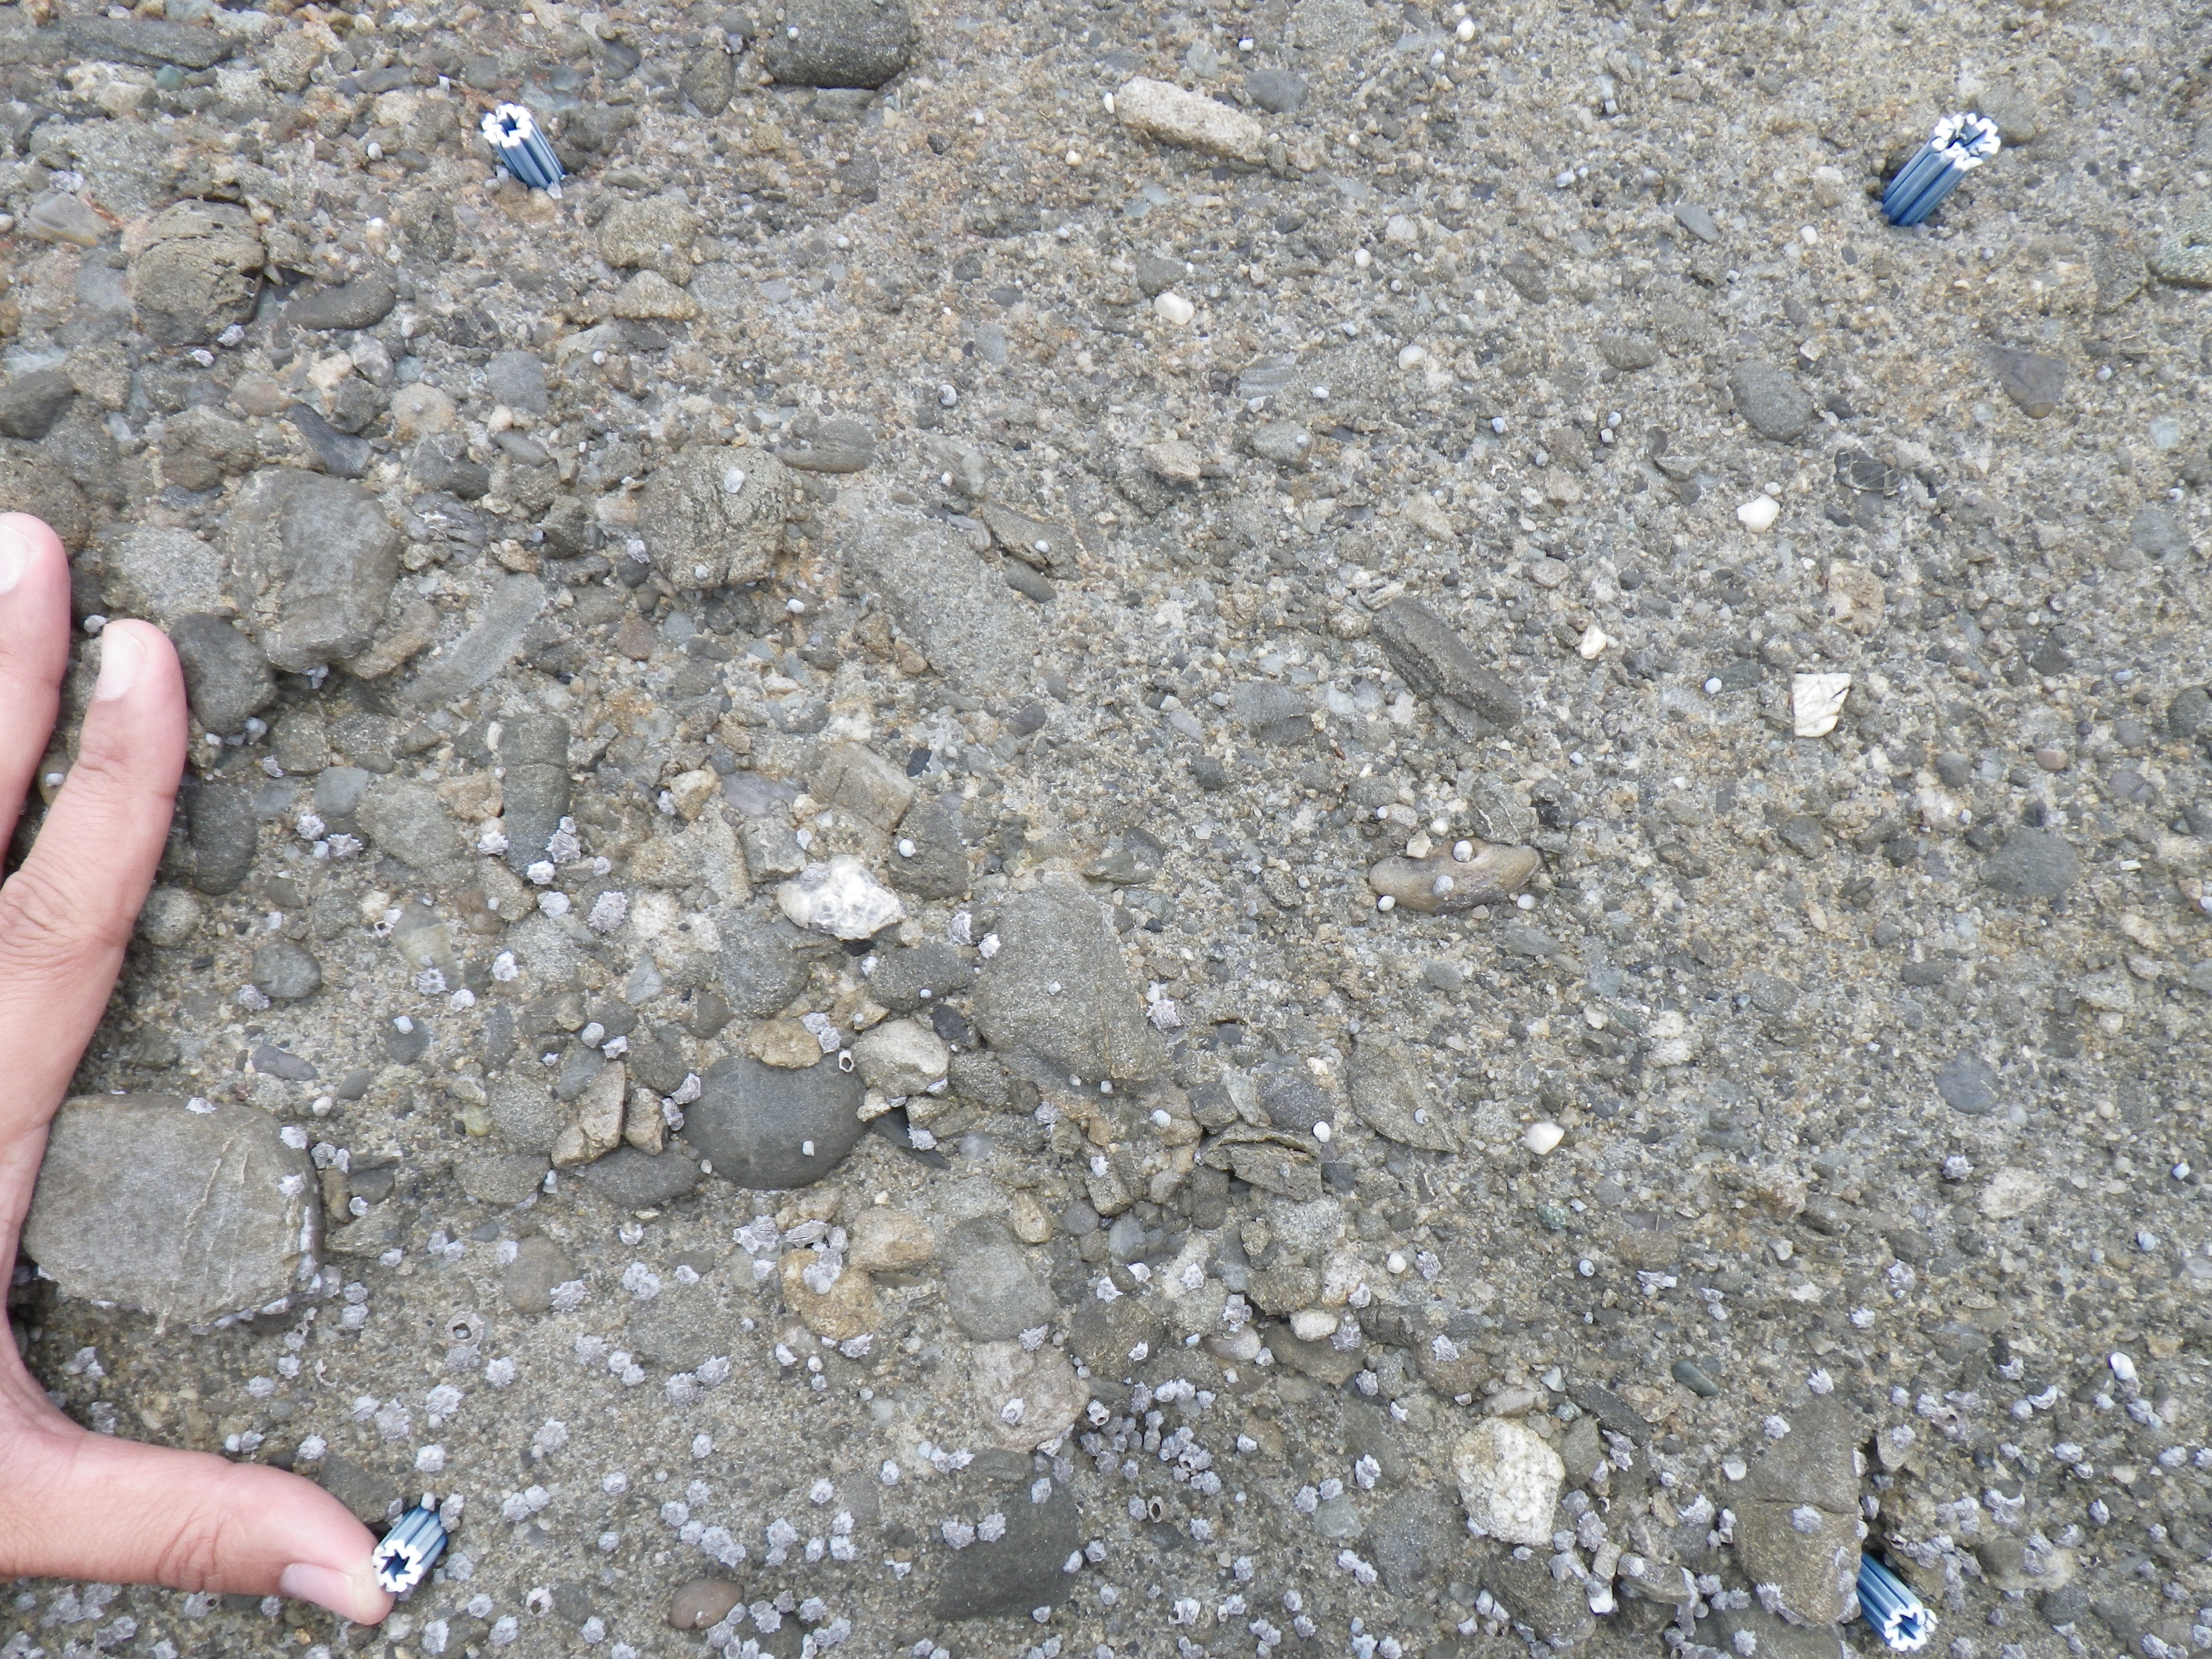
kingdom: Animalia
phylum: Arthropoda
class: Maxillopoda
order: Sessilia
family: Chthamalidae
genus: Chthamalus
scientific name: Chthamalus challengeri
